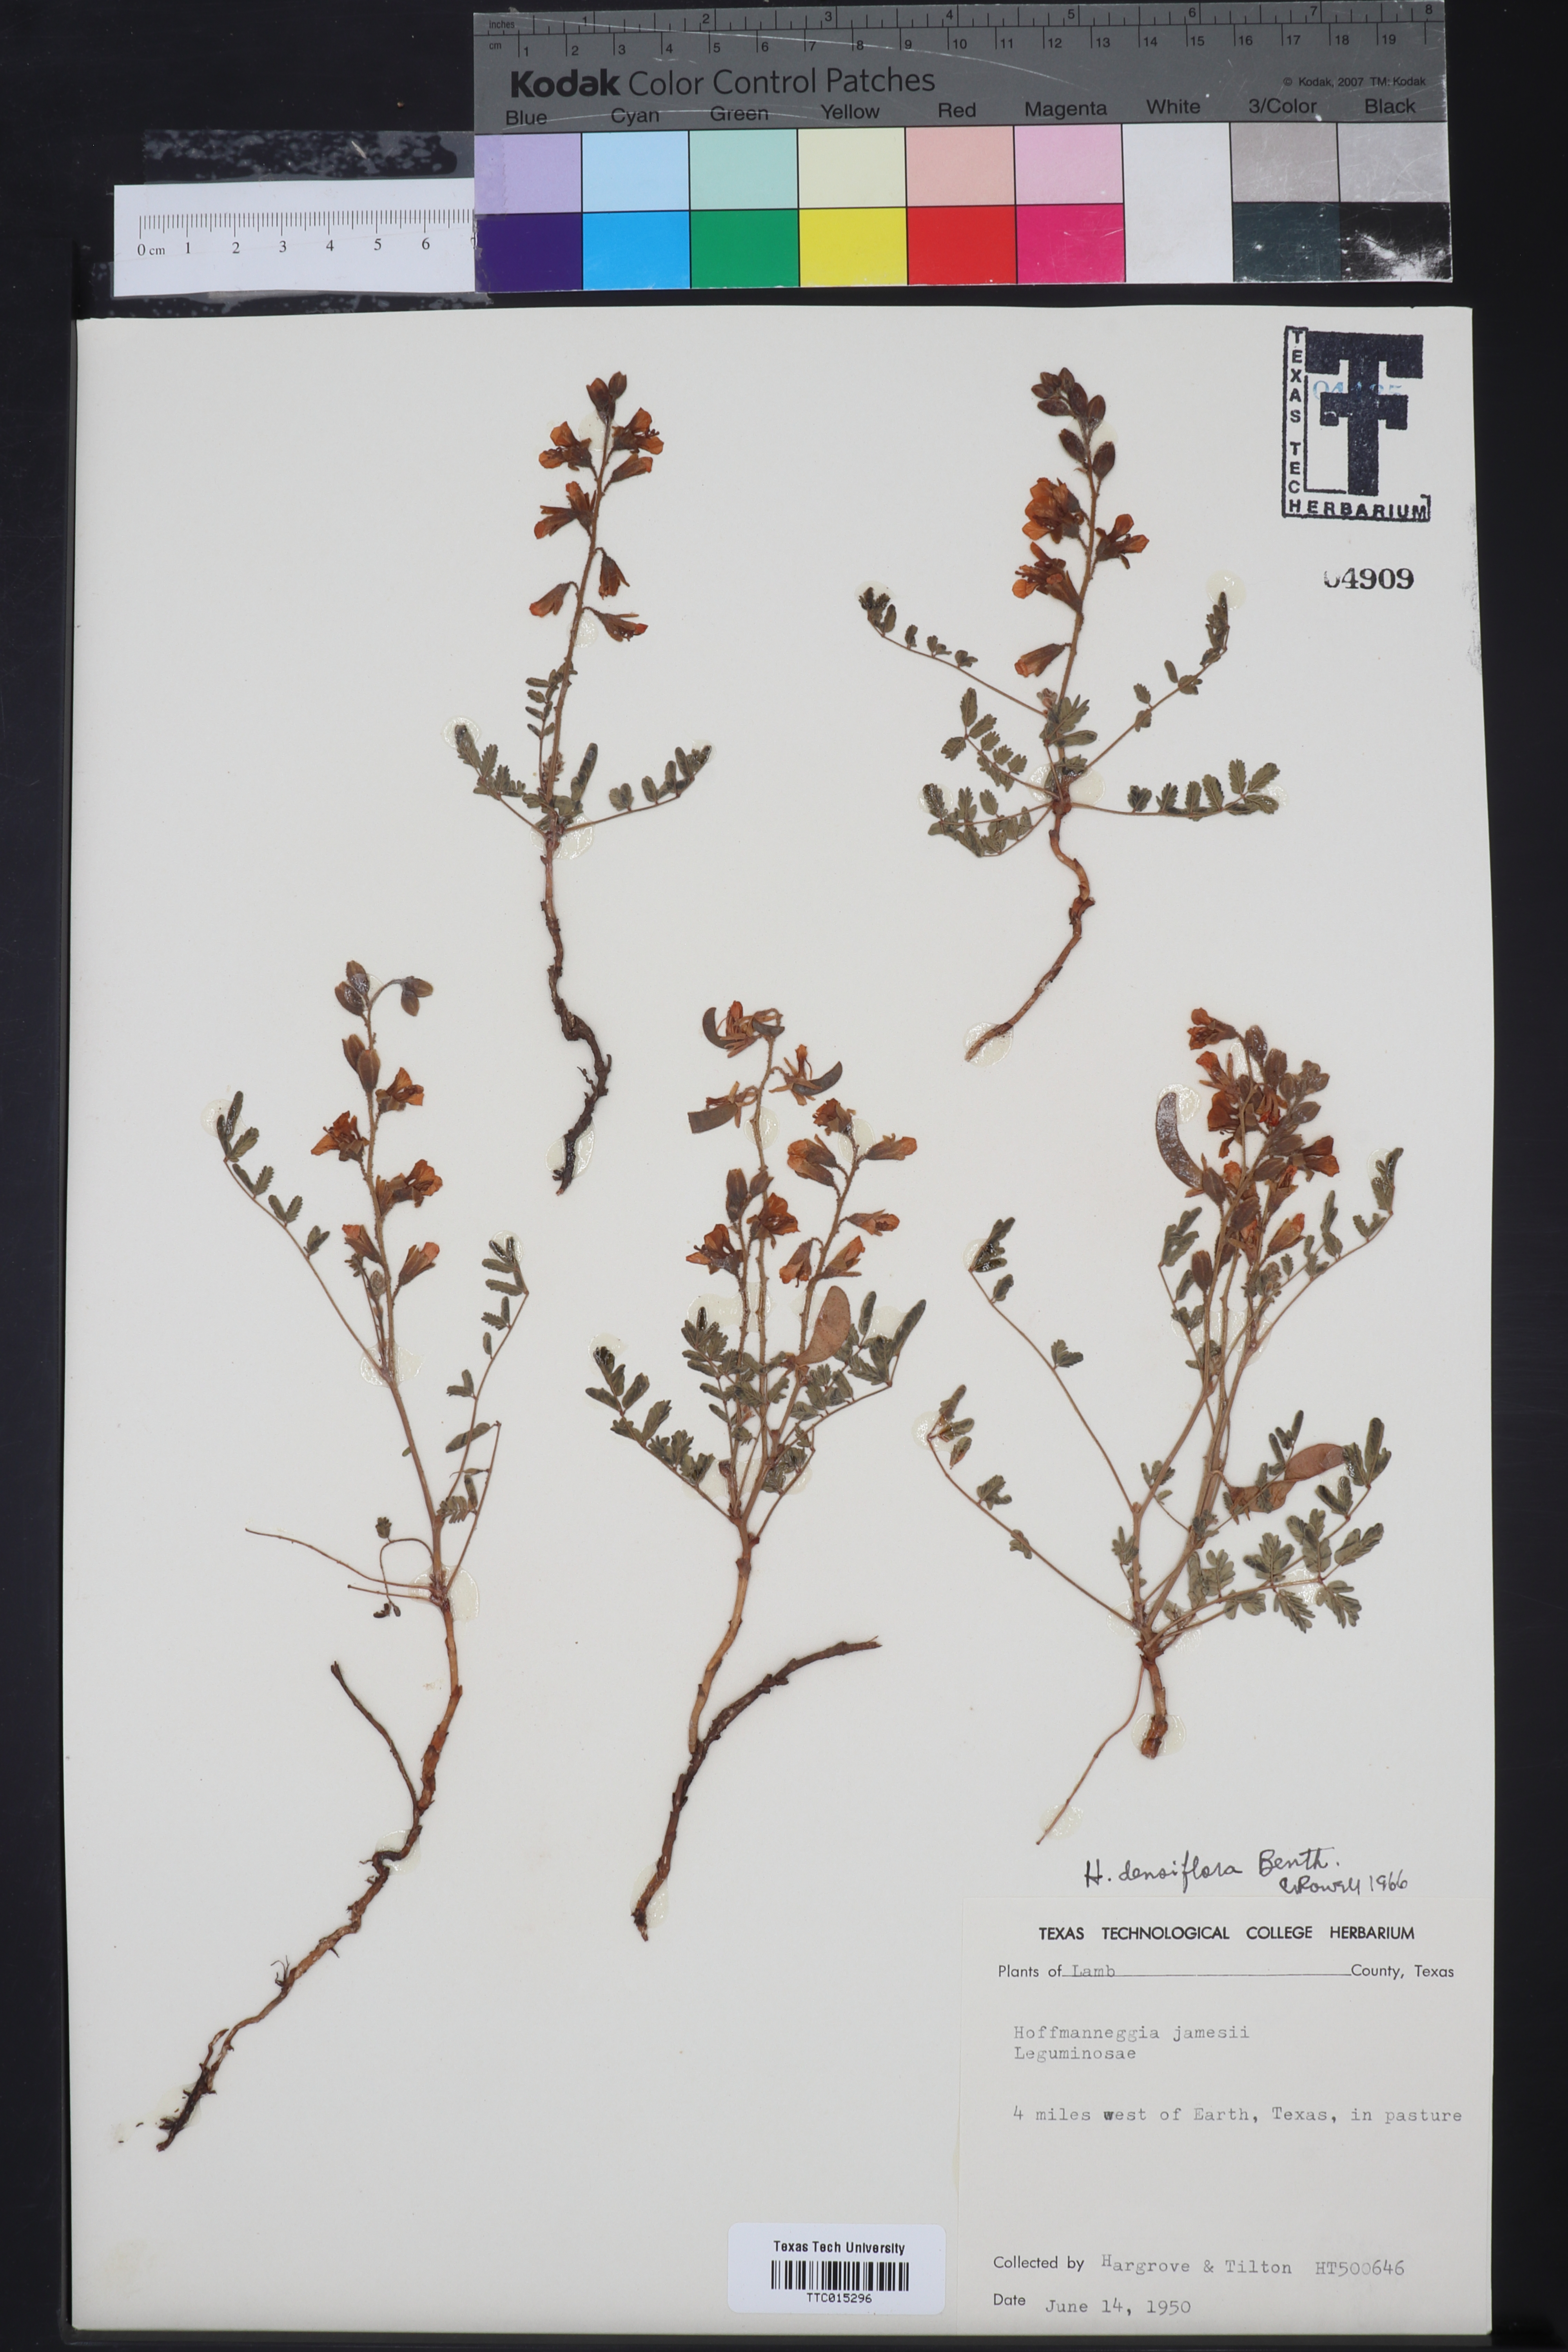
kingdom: Plantae
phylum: Tracheophyta
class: Magnoliopsida
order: Fabales
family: Fabaceae
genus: Hoffmannseggia
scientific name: Hoffmannseggia glauca
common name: Pignut
